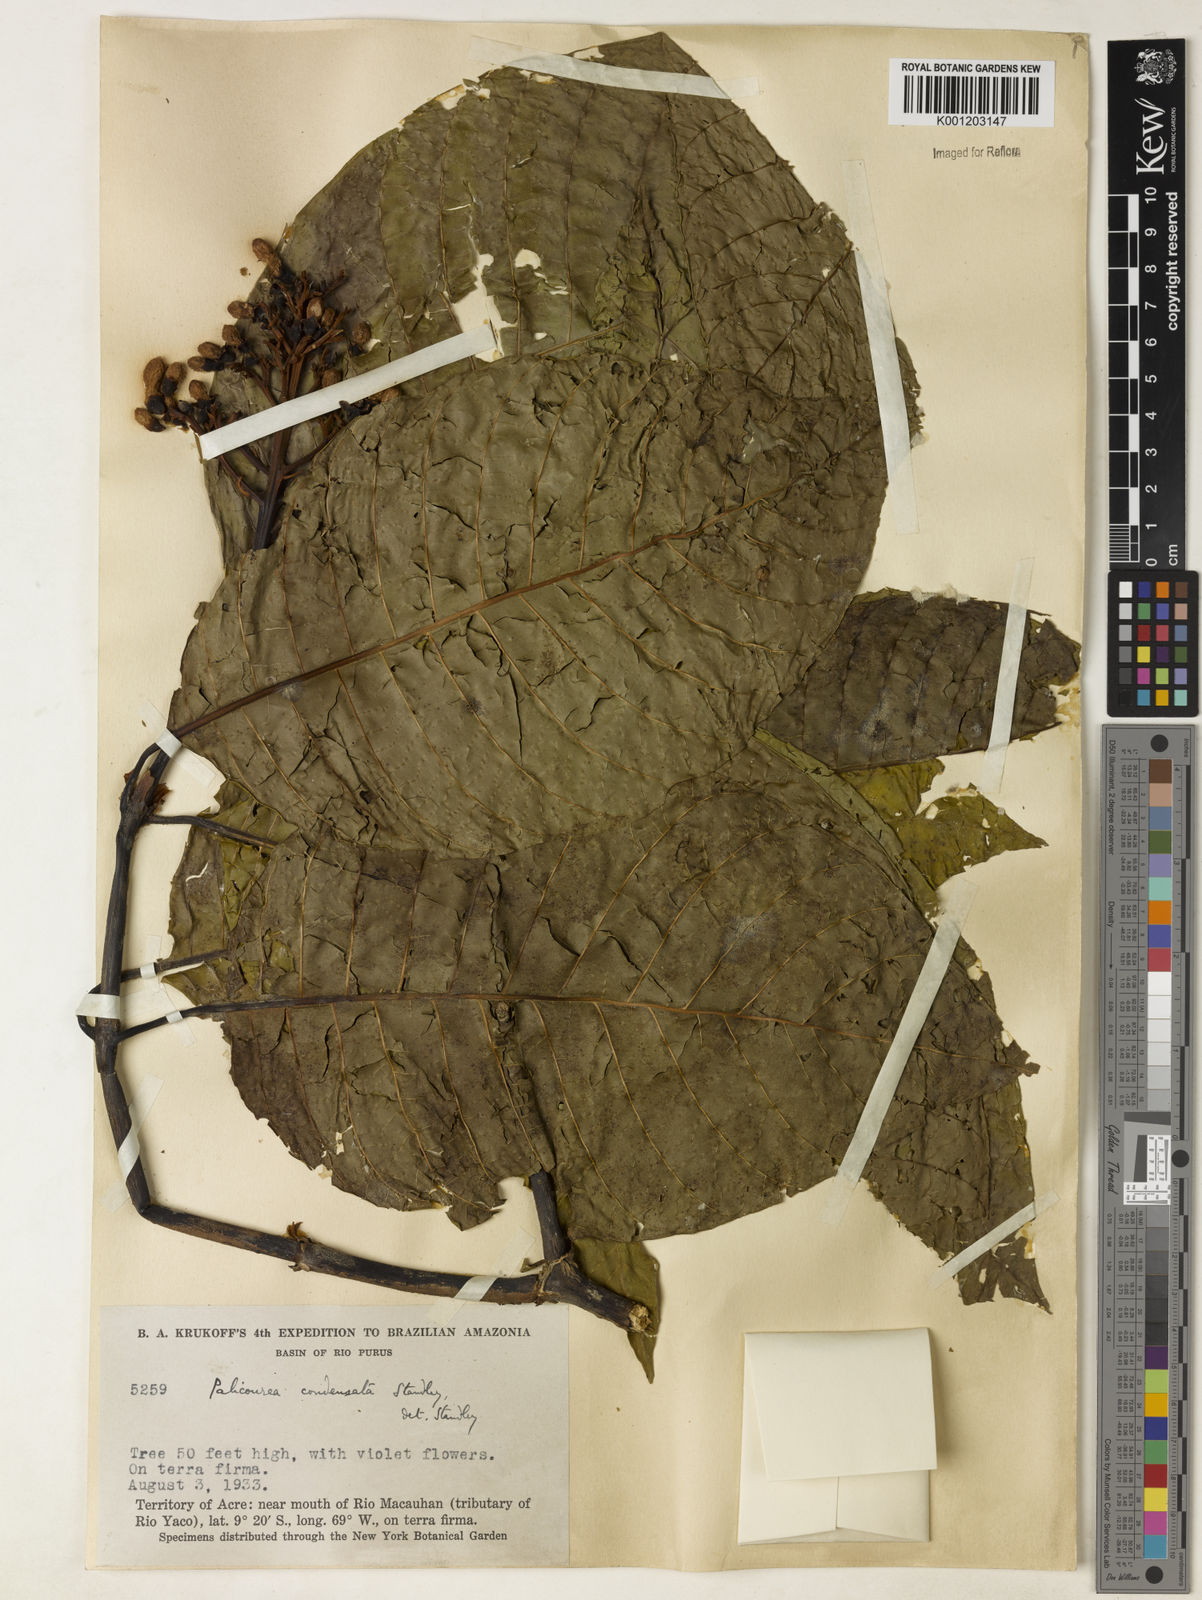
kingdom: Plantae
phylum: Tracheophyta
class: Magnoliopsida
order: Gentianales
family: Rubiaceae
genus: Palicourea
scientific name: Palicourea lasiantha
